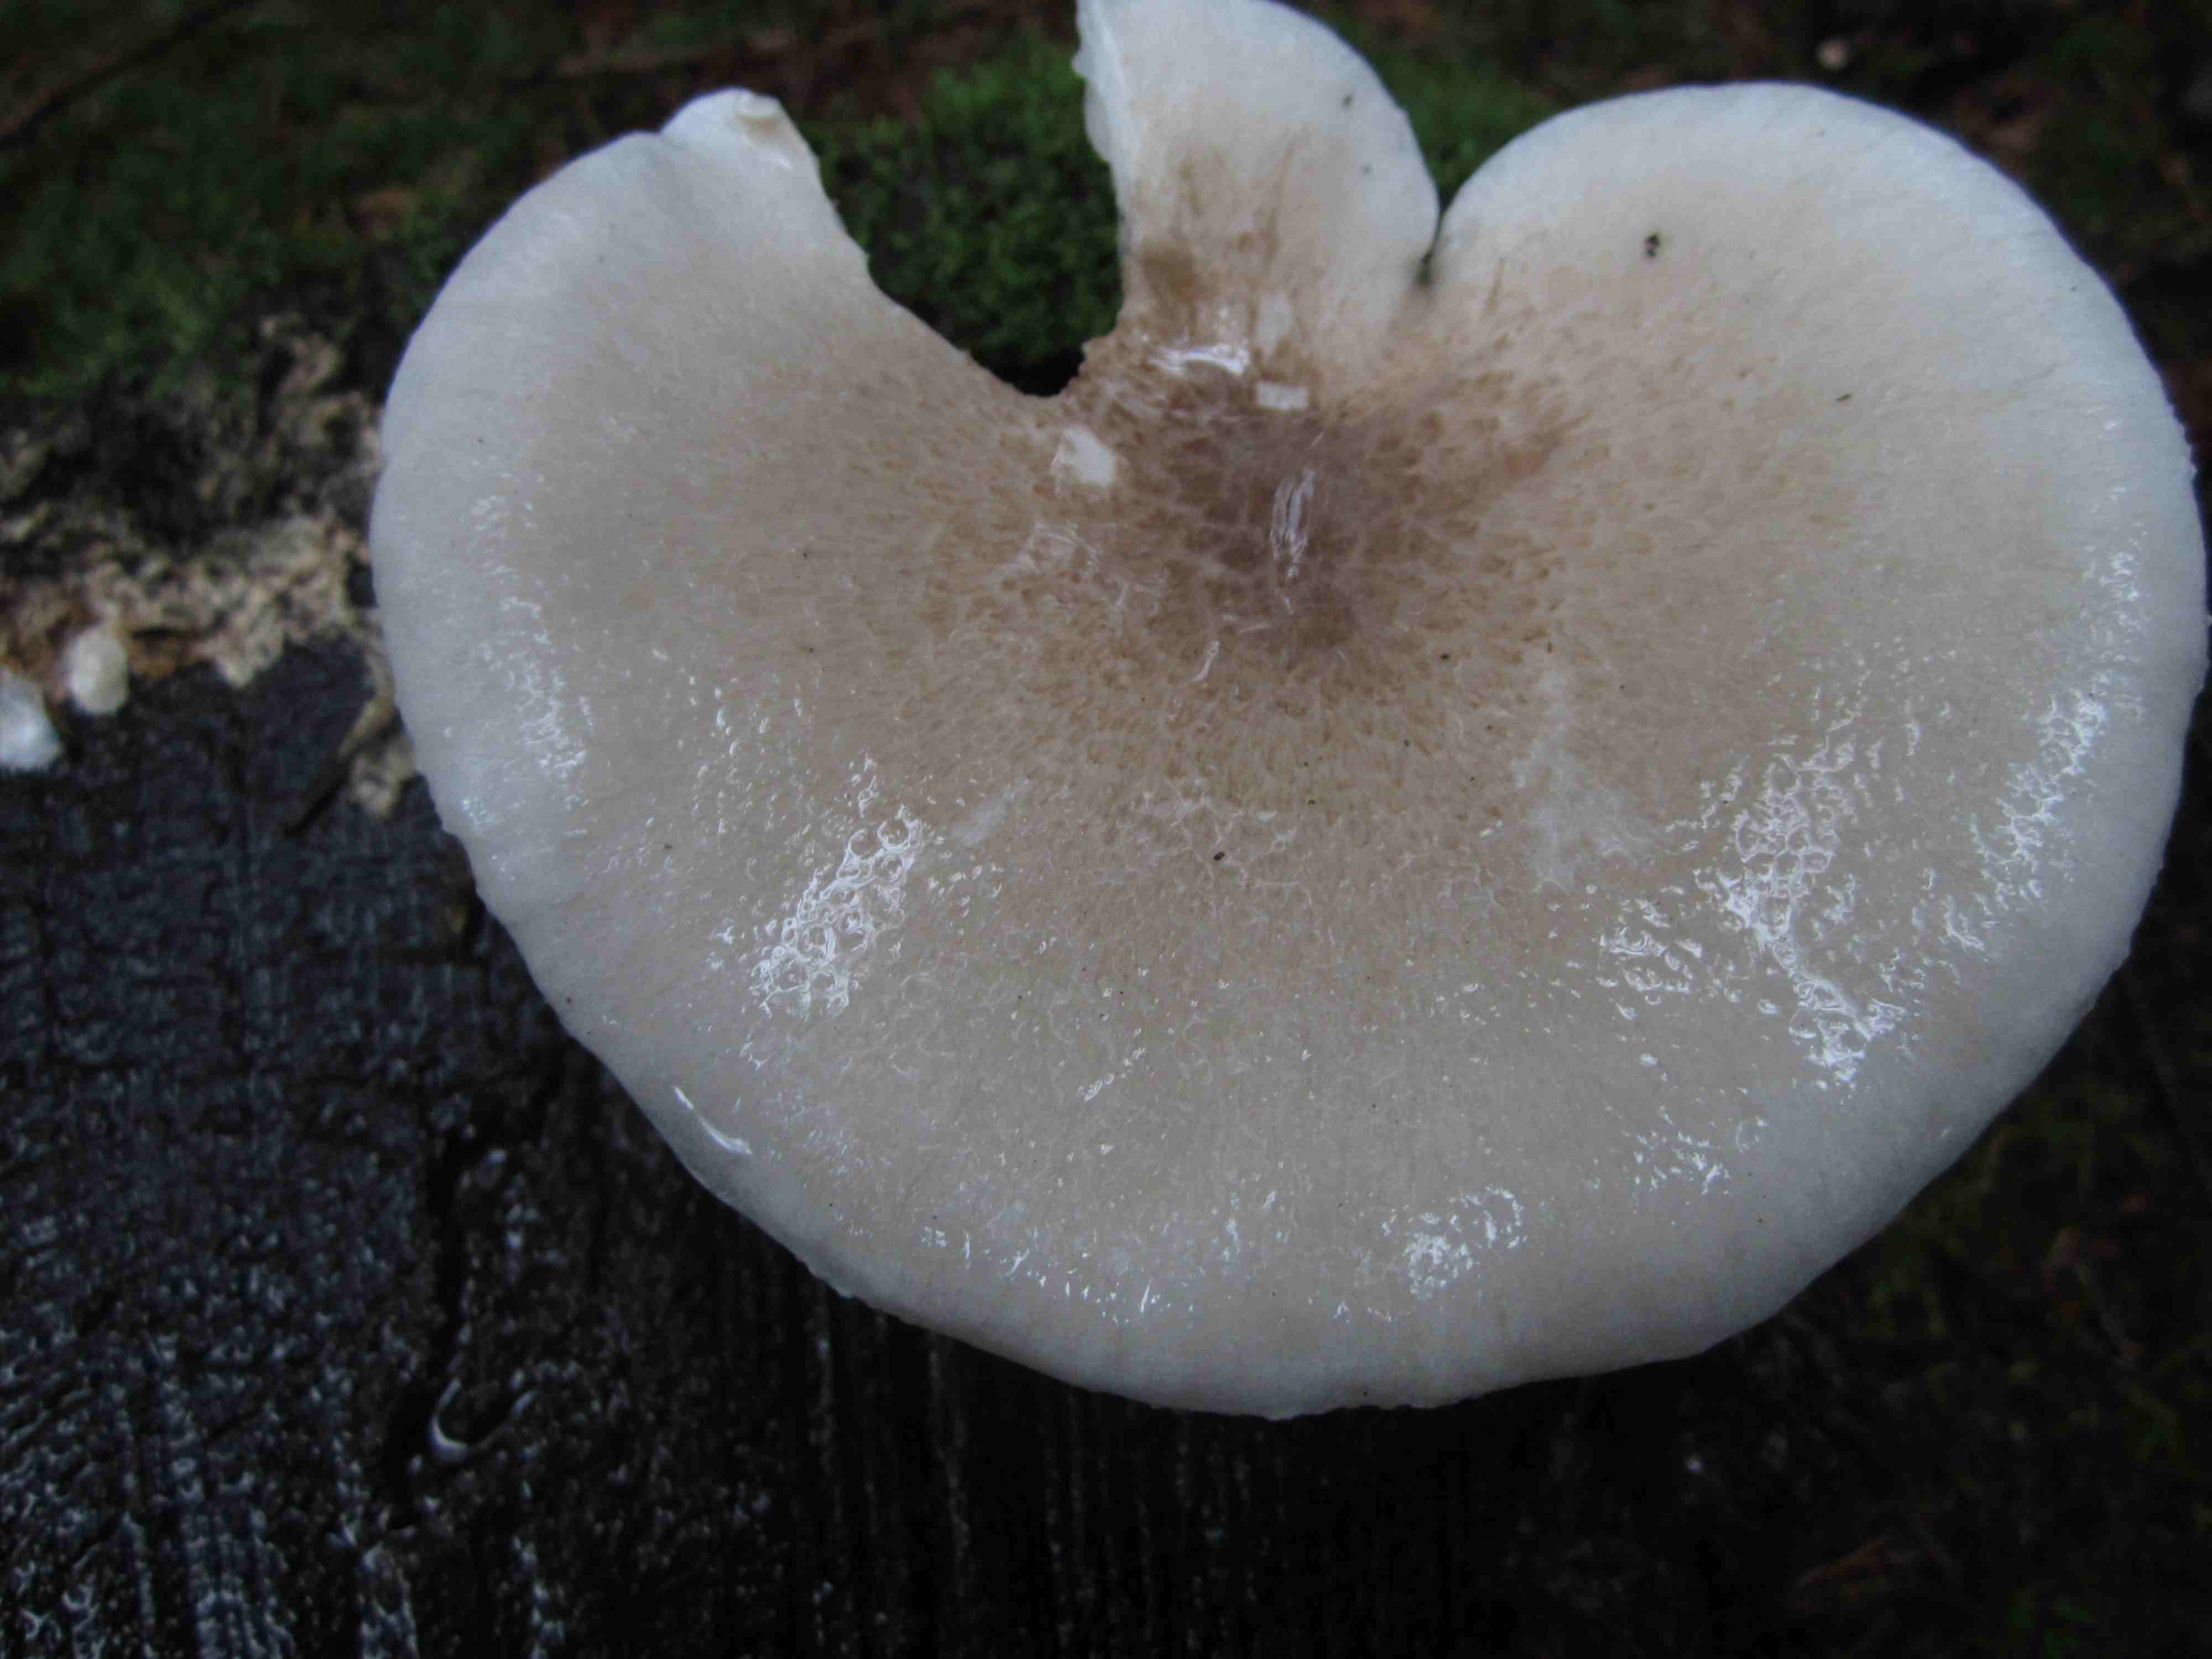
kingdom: Fungi
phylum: Basidiomycota
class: Agaricomycetes
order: Agaricales
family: Pleurotaceae
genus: Pleurotus
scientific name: Pleurotus dryinus
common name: korkagtig østershat
